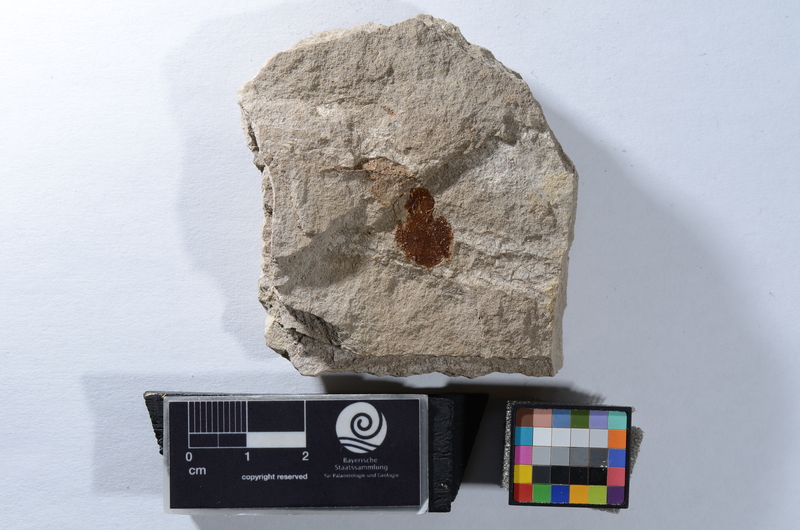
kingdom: Animalia
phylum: Chordata
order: Clupeiformes
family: Clupeidae
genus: Sprattus
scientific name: Sprattus
